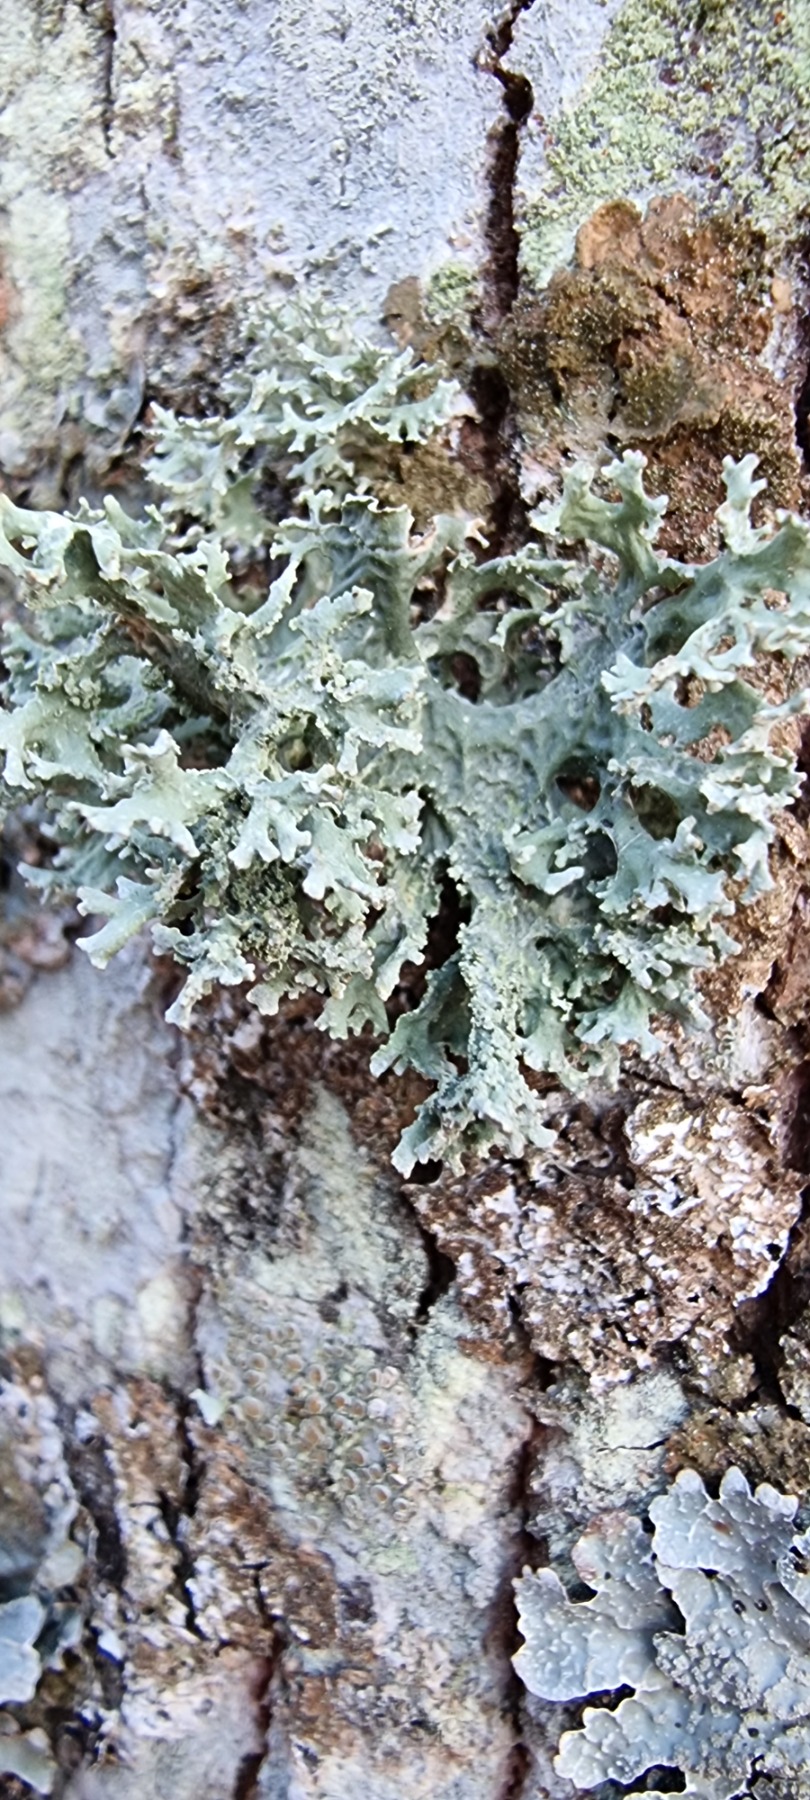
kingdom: Fungi
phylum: Ascomycota
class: Lecanoromycetes
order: Lecanorales
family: Parmeliaceae
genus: Evernia
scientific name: Evernia prunastri
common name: Almindelig slåenlav
